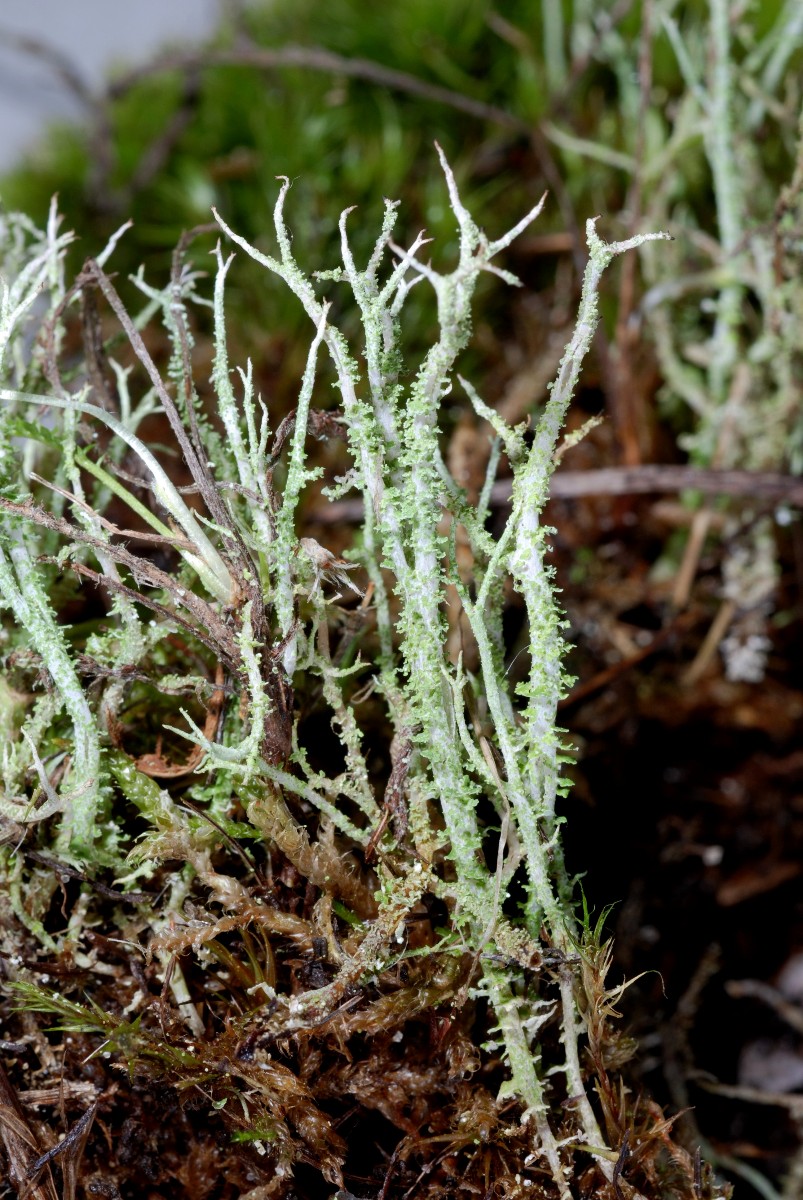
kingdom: Fungi
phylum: Ascomycota
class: Lecanoromycetes
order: Lecanorales
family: Cladoniaceae
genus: Cladonia
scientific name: Cladonia scabriuscula
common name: ru bægerlav
